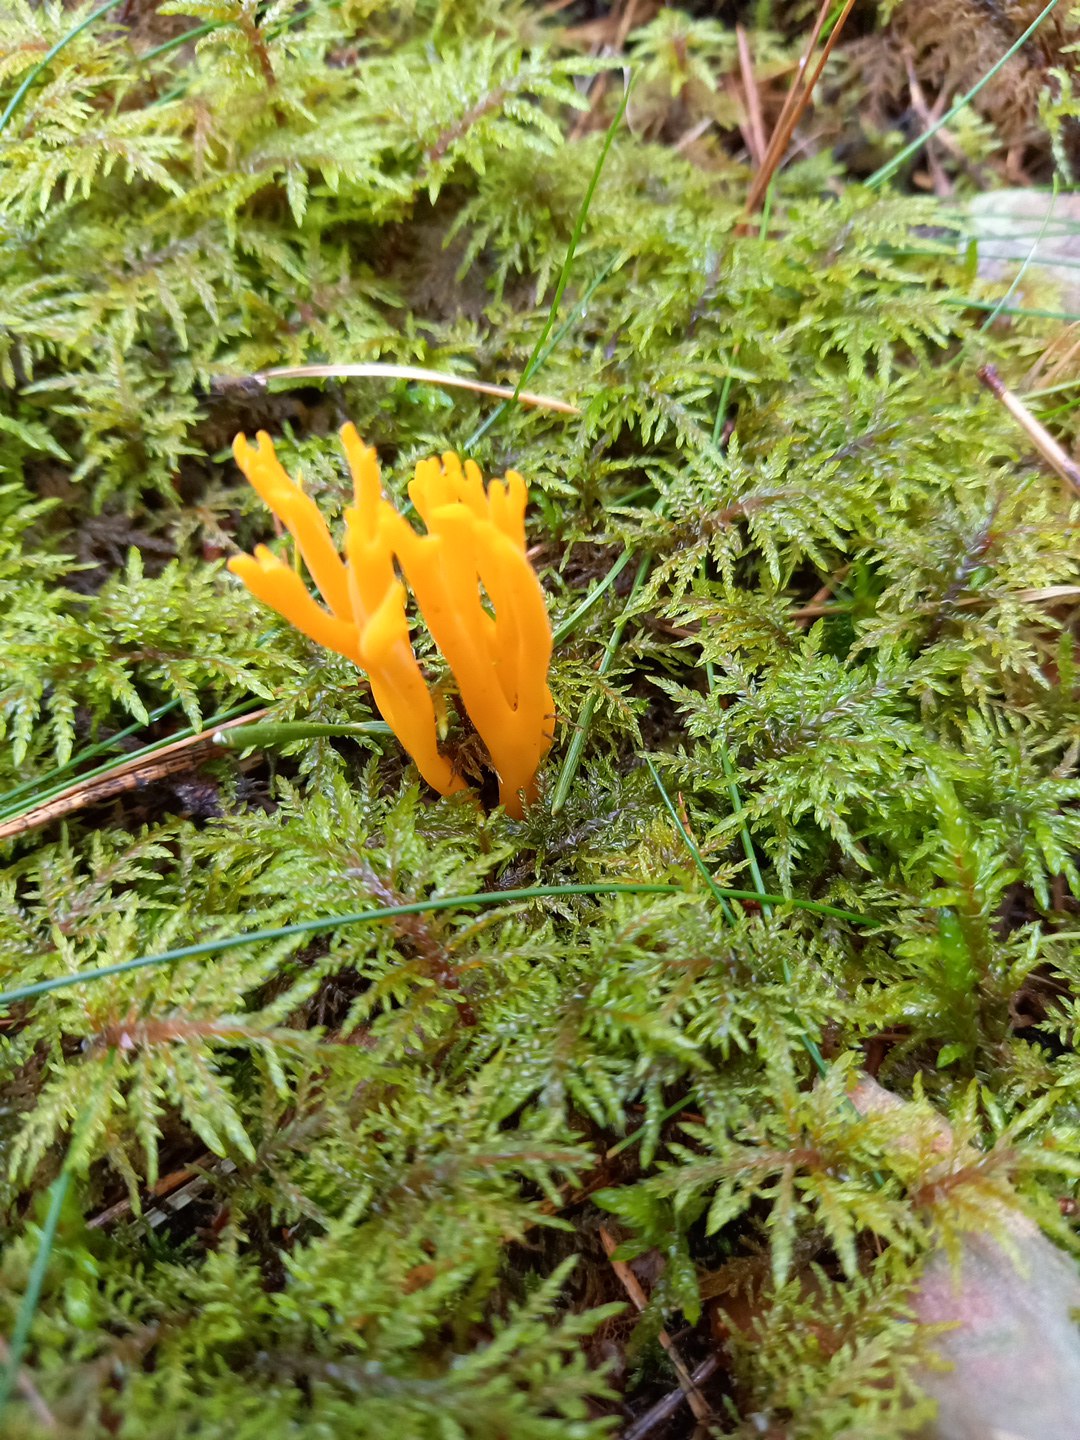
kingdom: Fungi
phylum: Basidiomycota
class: Dacrymycetes
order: Dacrymycetales
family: Dacrymycetaceae
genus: Calocera
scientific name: Calocera viscosa
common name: almindelig guldgaffel
